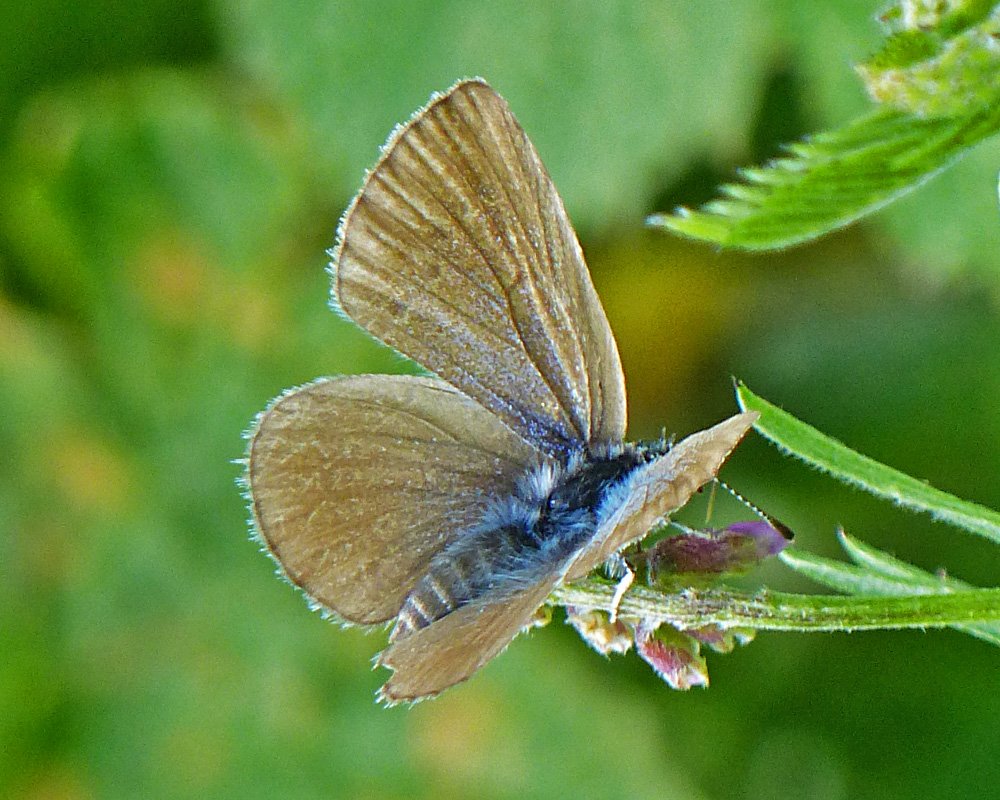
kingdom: Animalia
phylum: Arthropoda
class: Insecta
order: Lepidoptera
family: Lycaenidae
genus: Icaricia
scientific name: Icaricia icarioides
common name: Boisduval's Blue
